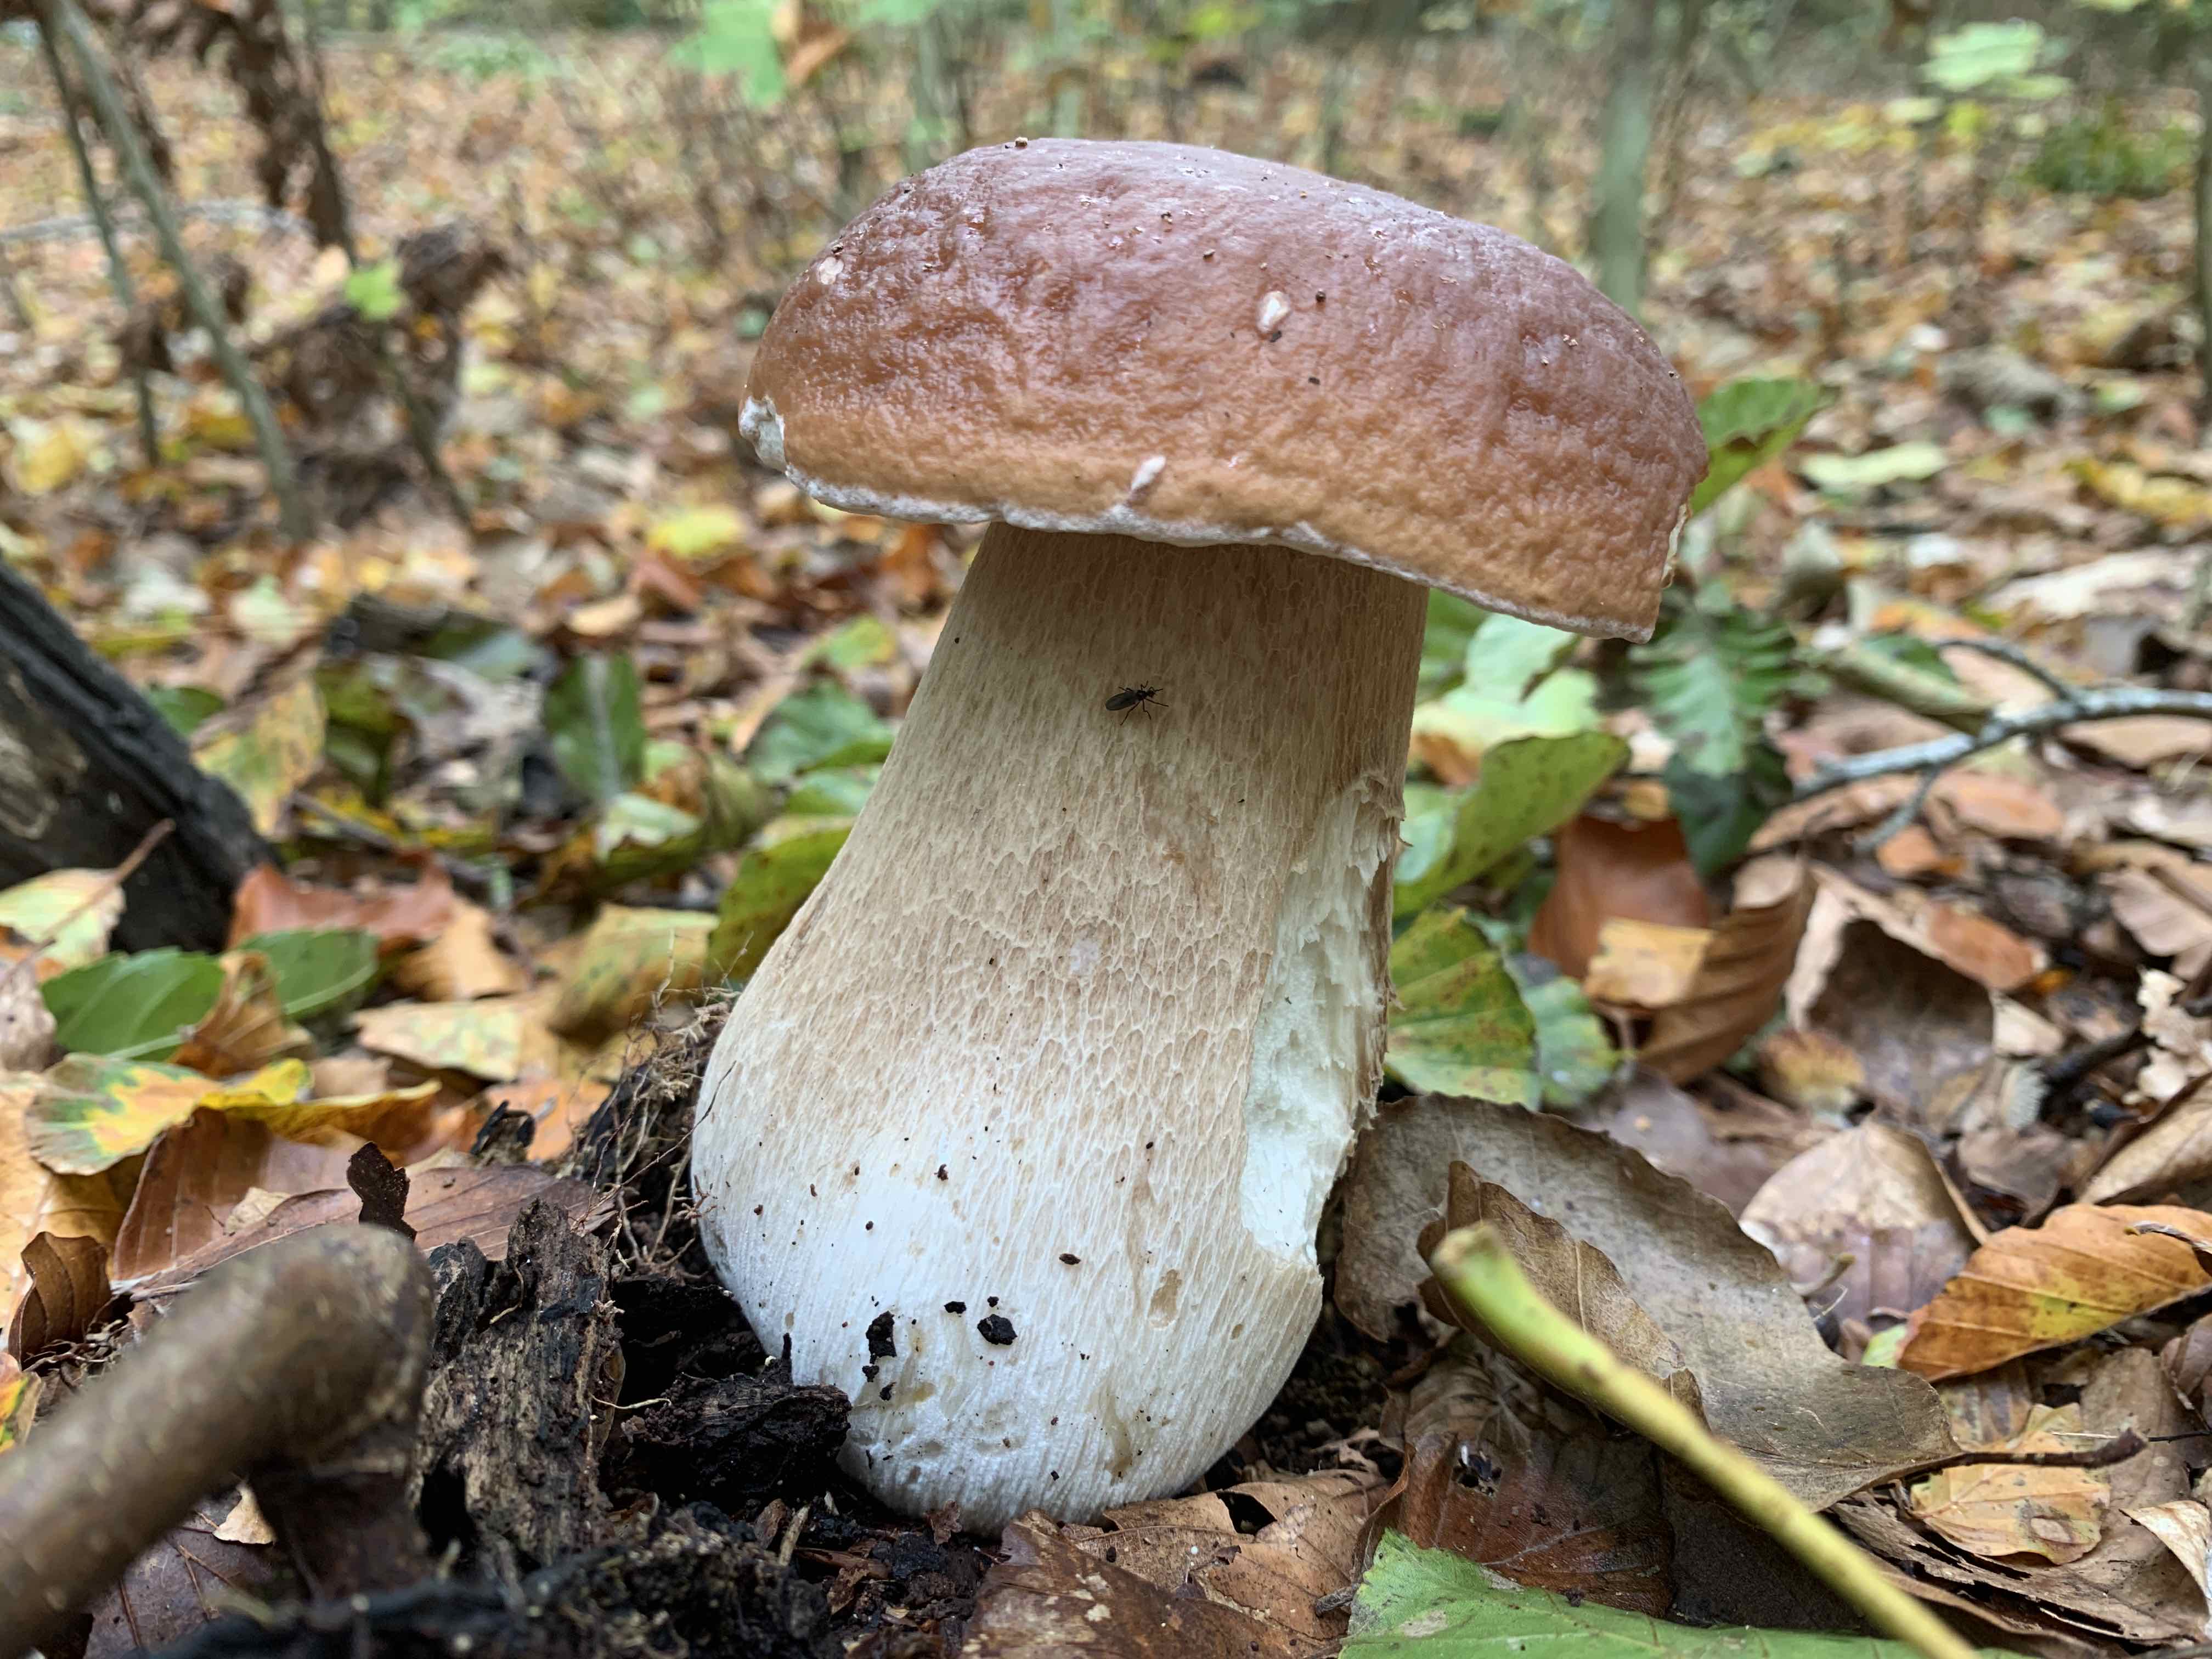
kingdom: Fungi
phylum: Basidiomycota
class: Agaricomycetes
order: Boletales
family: Boletaceae
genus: Boletus
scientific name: Boletus edulis
